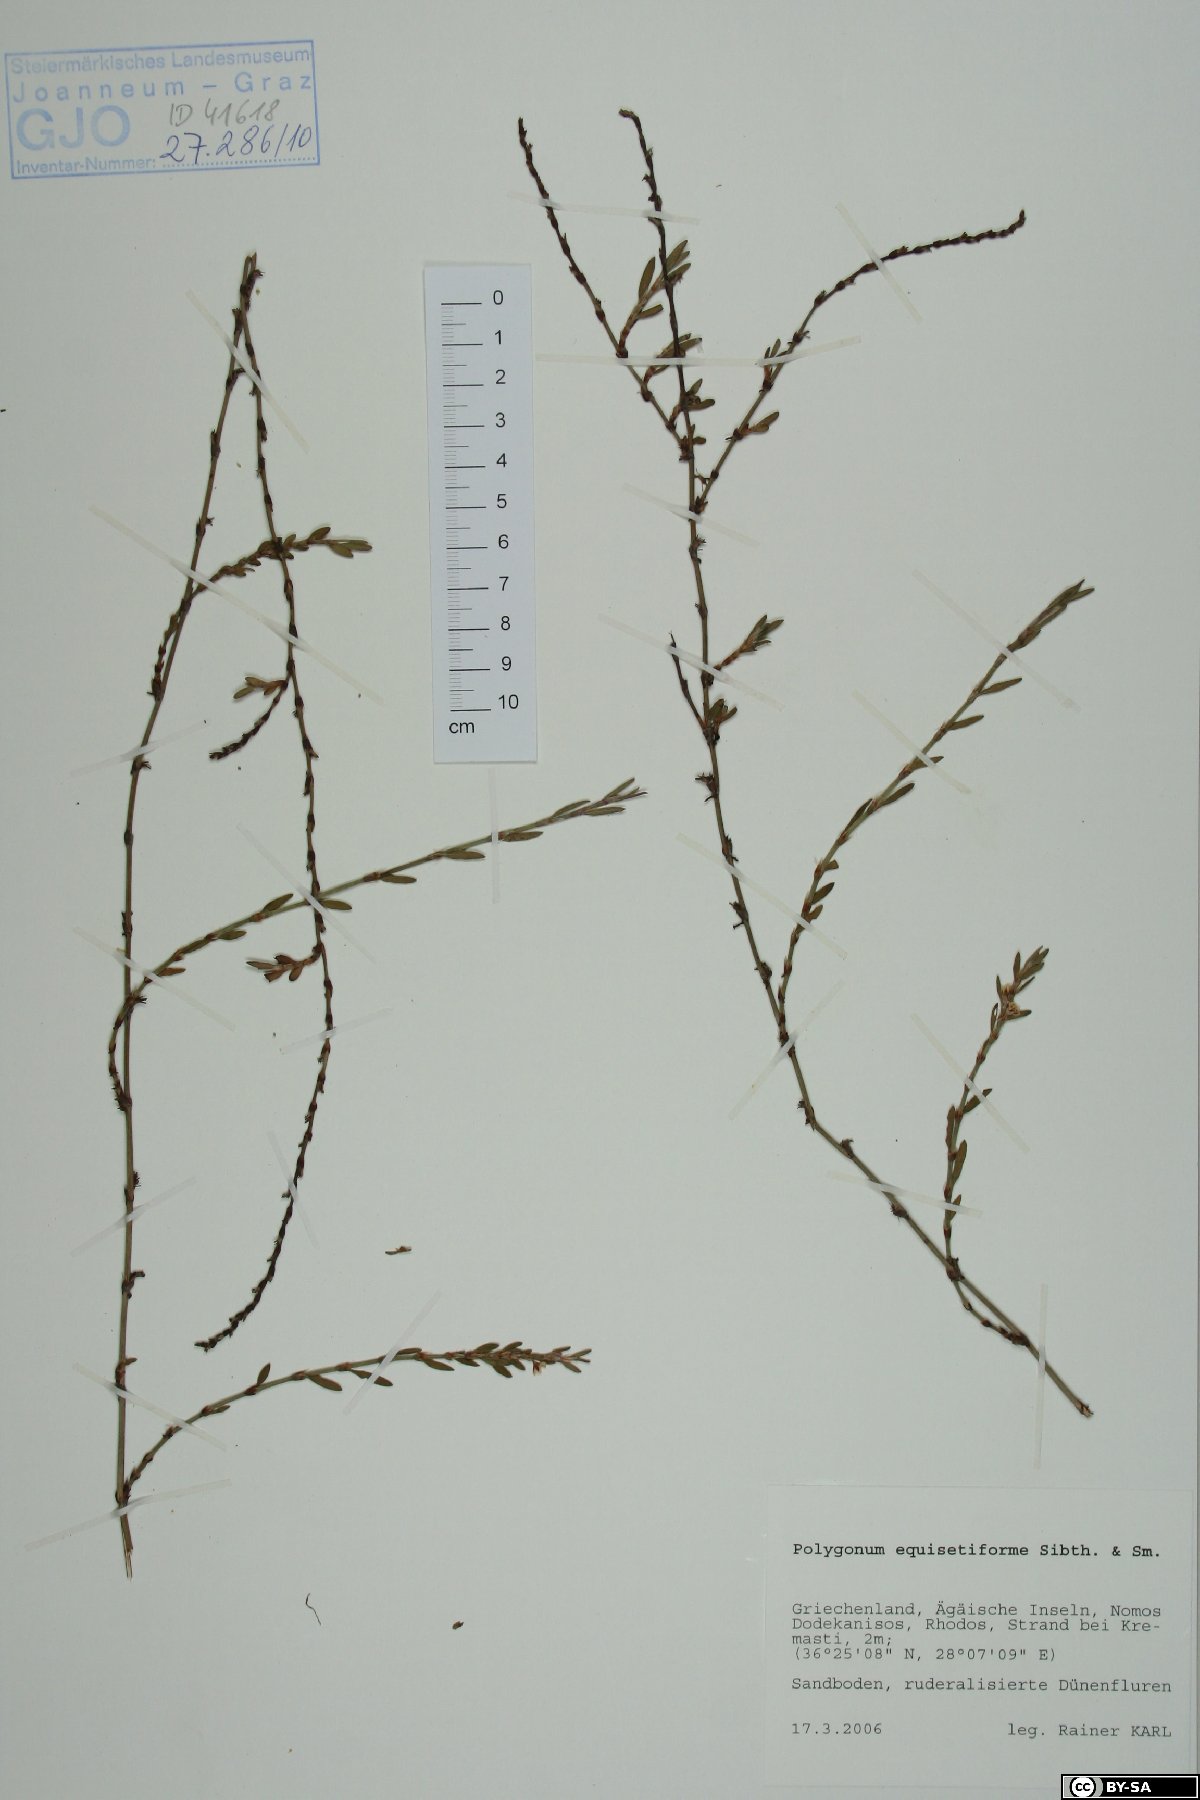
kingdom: Plantae
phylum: Tracheophyta
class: Magnoliopsida
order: Caryophyllales
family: Polygonaceae
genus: Polygonum
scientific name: Polygonum equisetiforme
